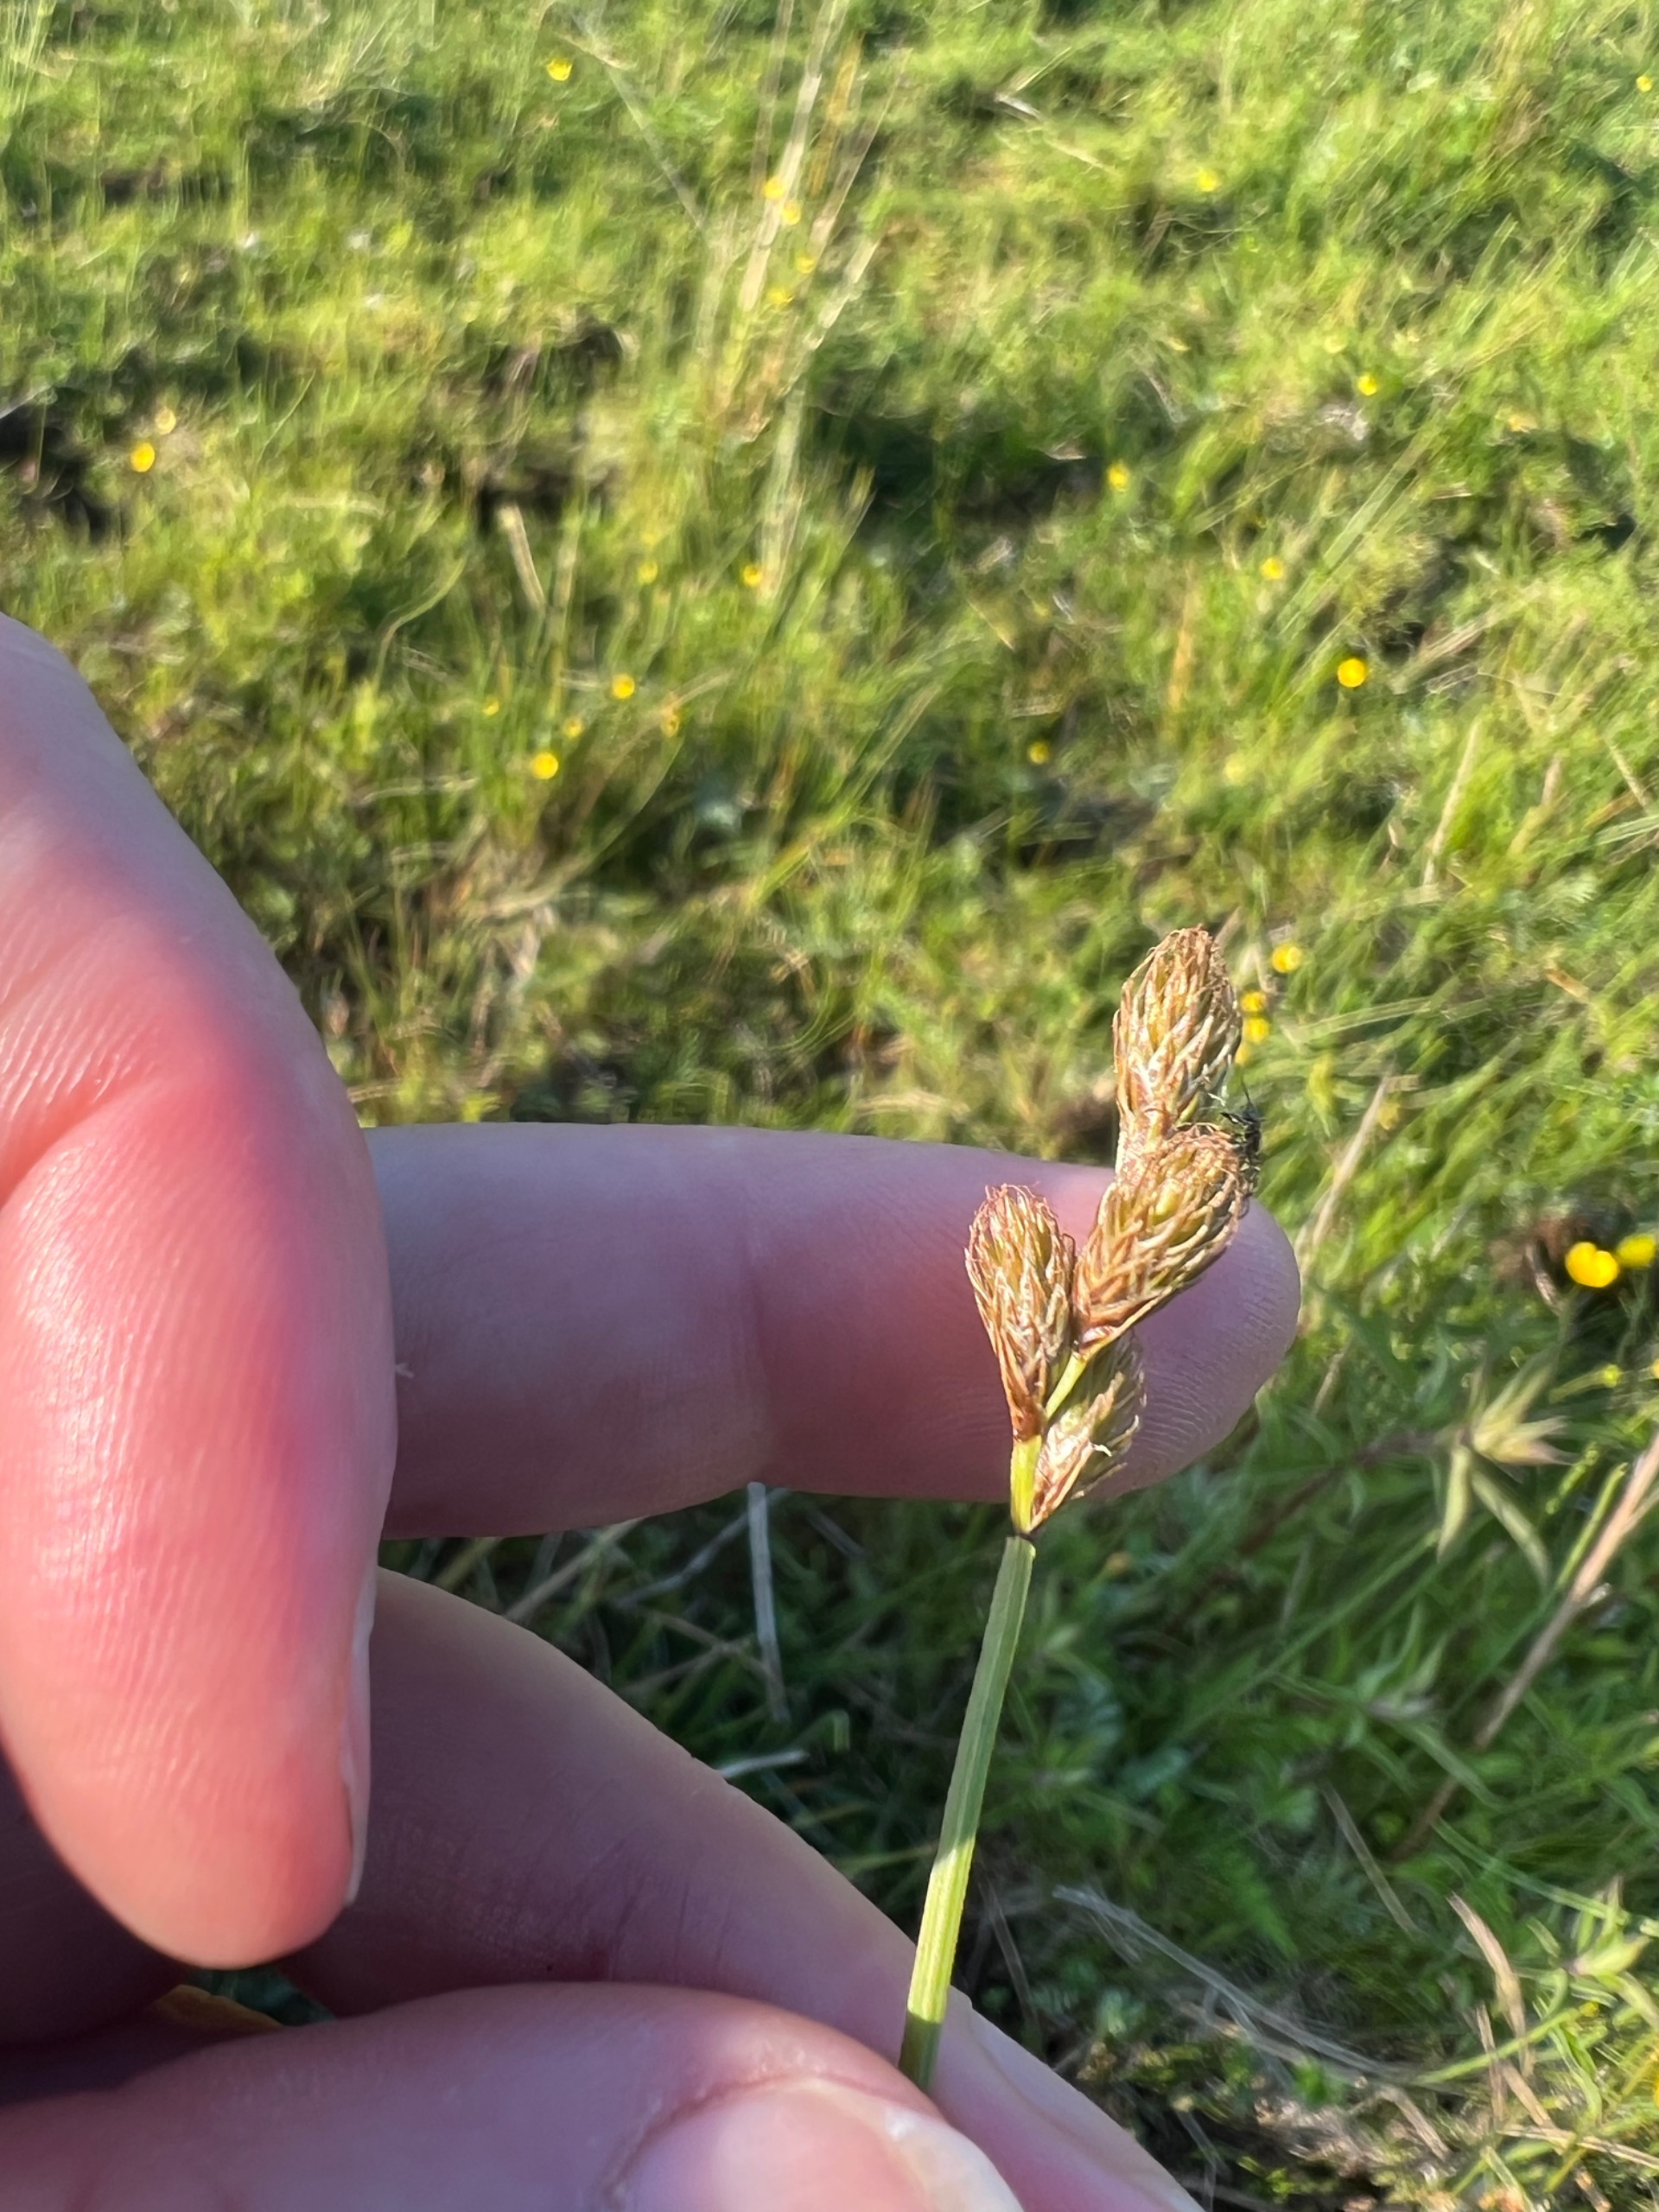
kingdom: Plantae
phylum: Tracheophyta
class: Liliopsida
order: Poales
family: Cyperaceae
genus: Carex
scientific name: Carex leporina
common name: Hare-star
